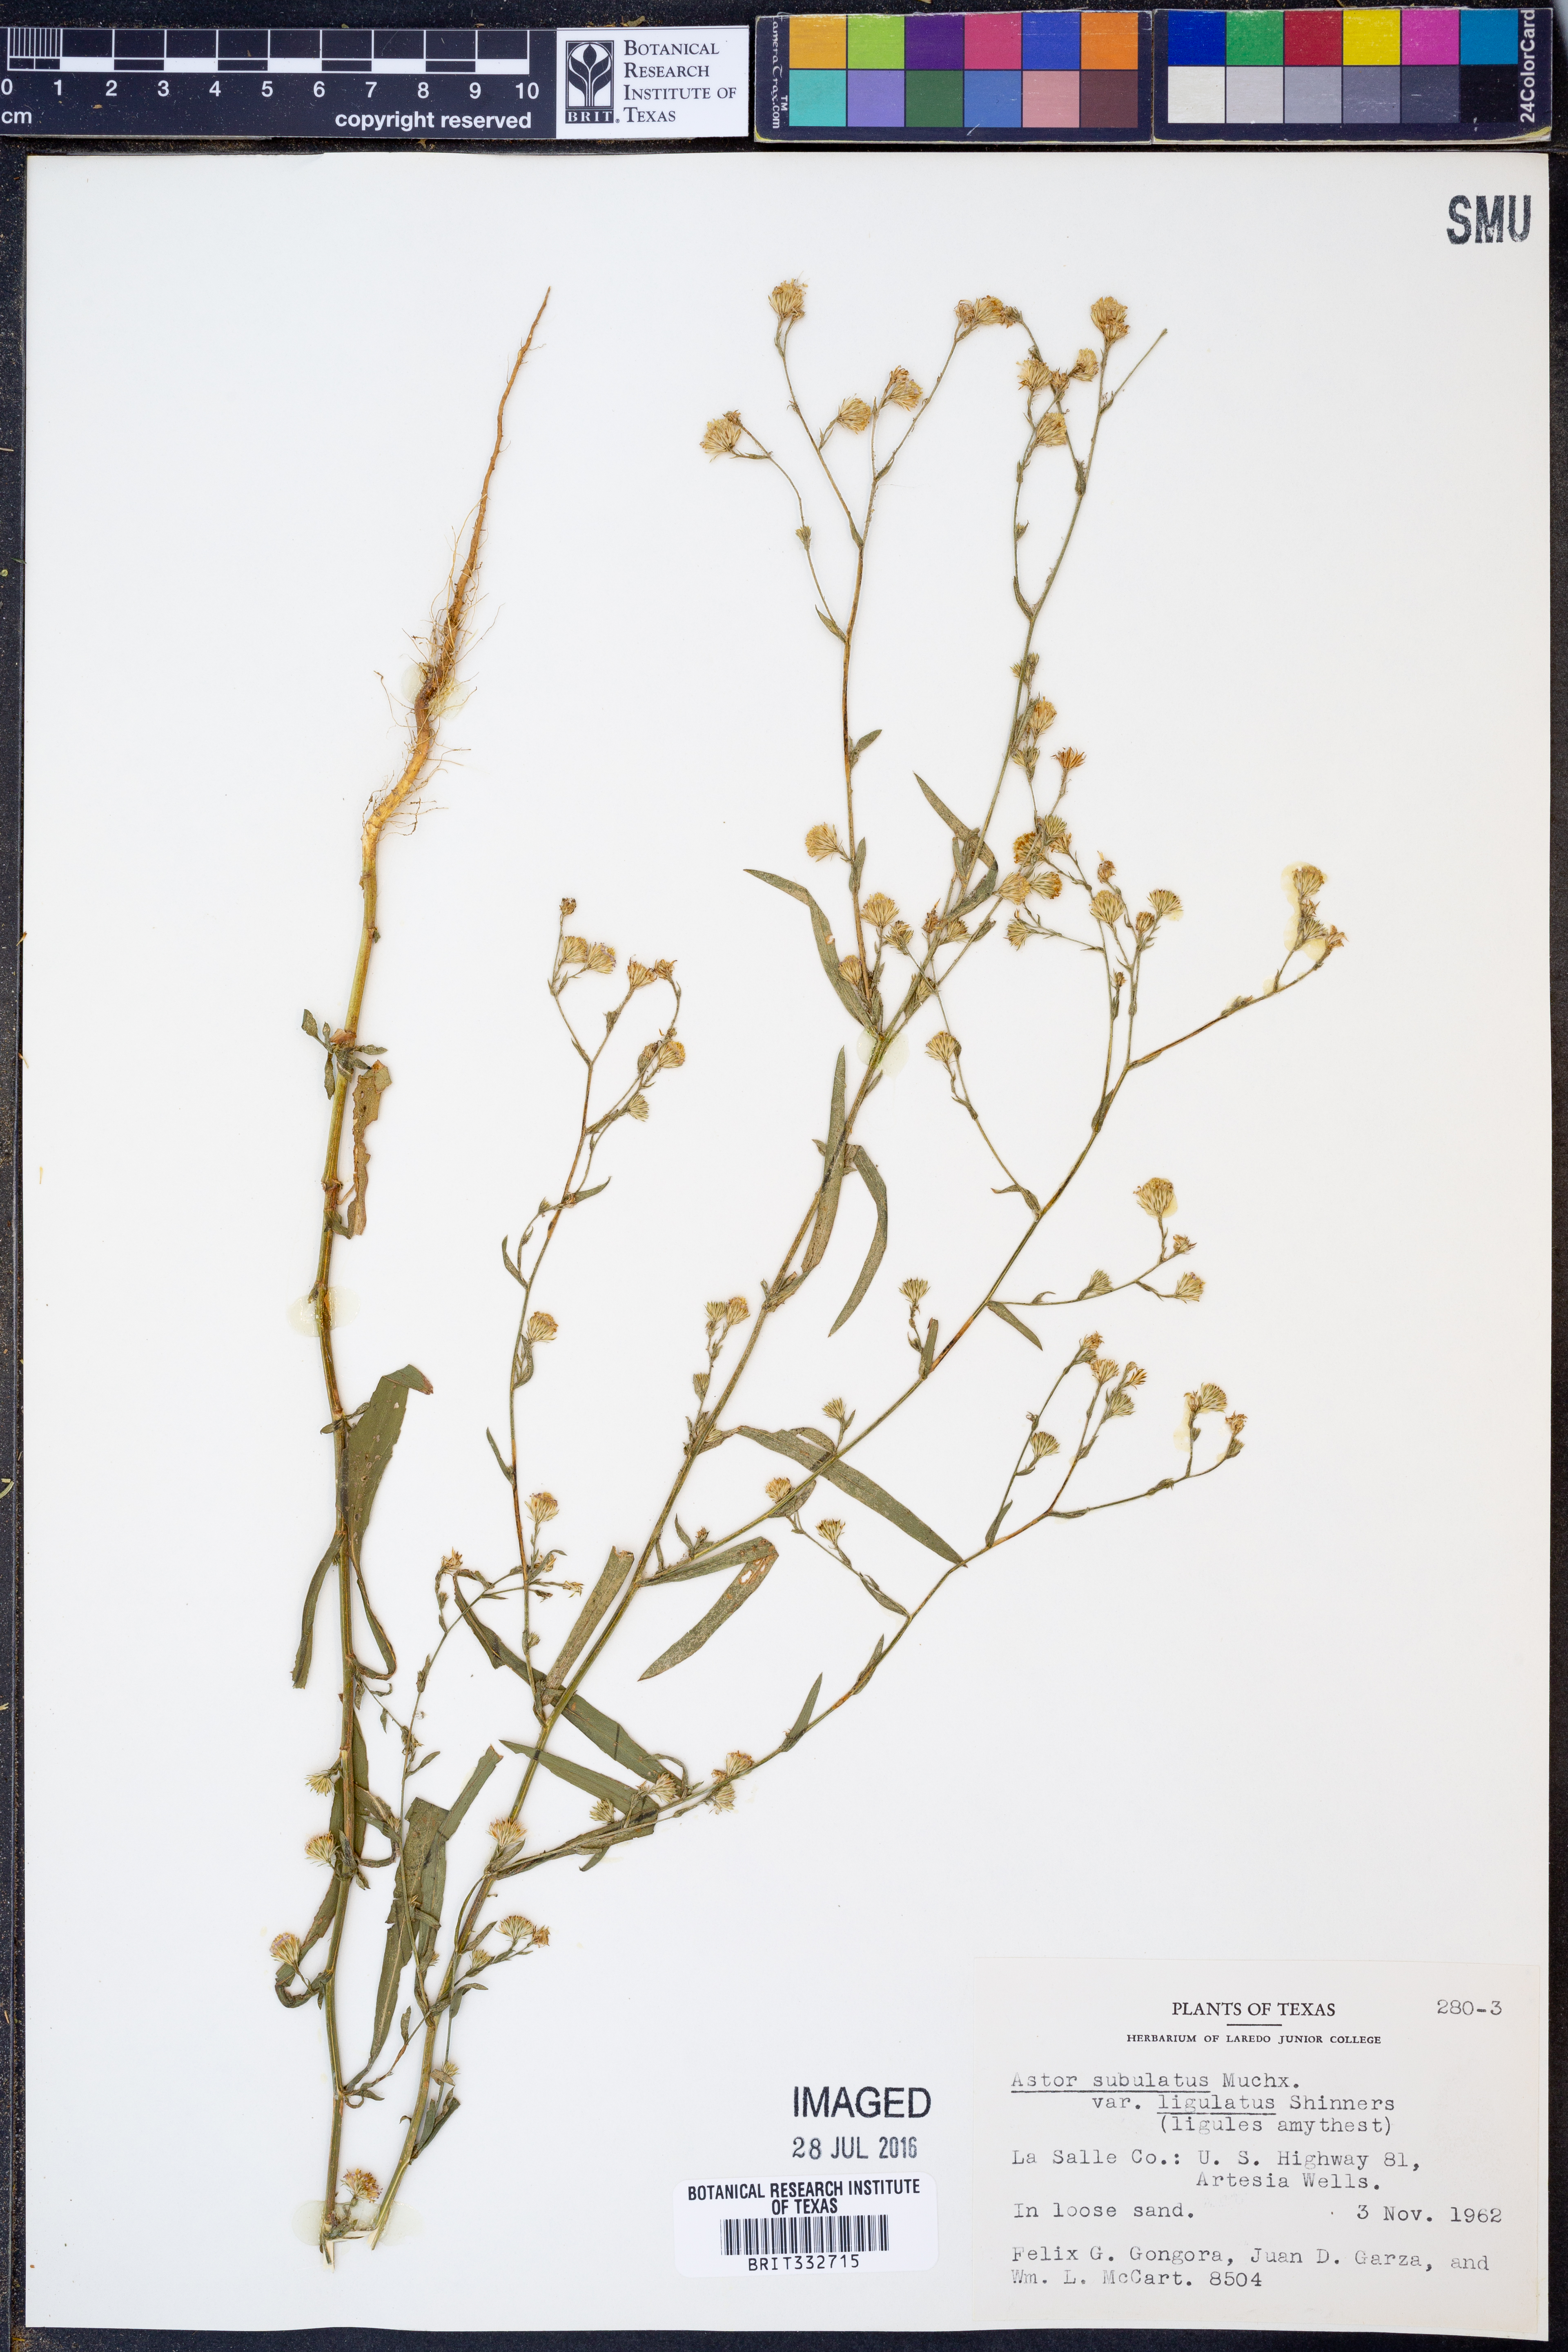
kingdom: Plantae
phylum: Tracheophyta
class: Magnoliopsida
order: Asterales
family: Asteraceae
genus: Symphyotrichum
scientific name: Symphyotrichum subulatum
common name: Annual saltmarsh aster
